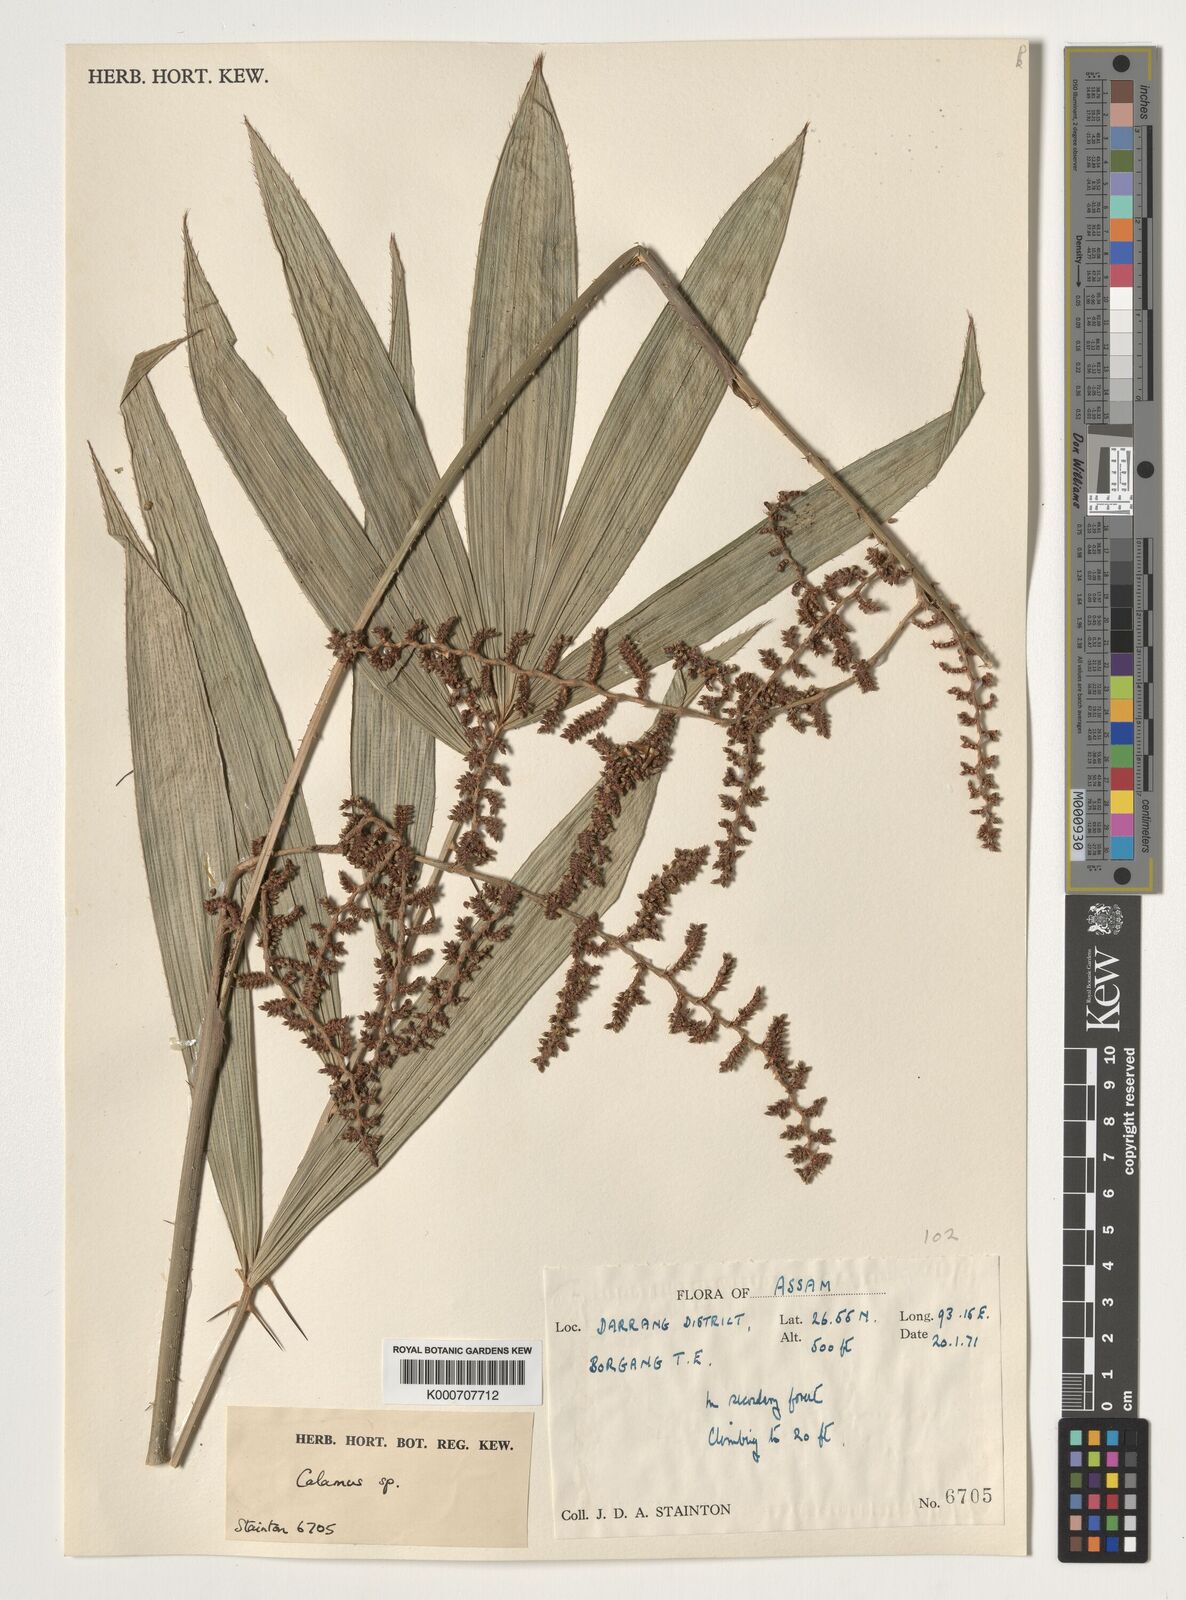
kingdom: Plantae
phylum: Tracheophyta
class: Liliopsida
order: Arecales
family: Arecaceae
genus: Calamus
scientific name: Calamus
